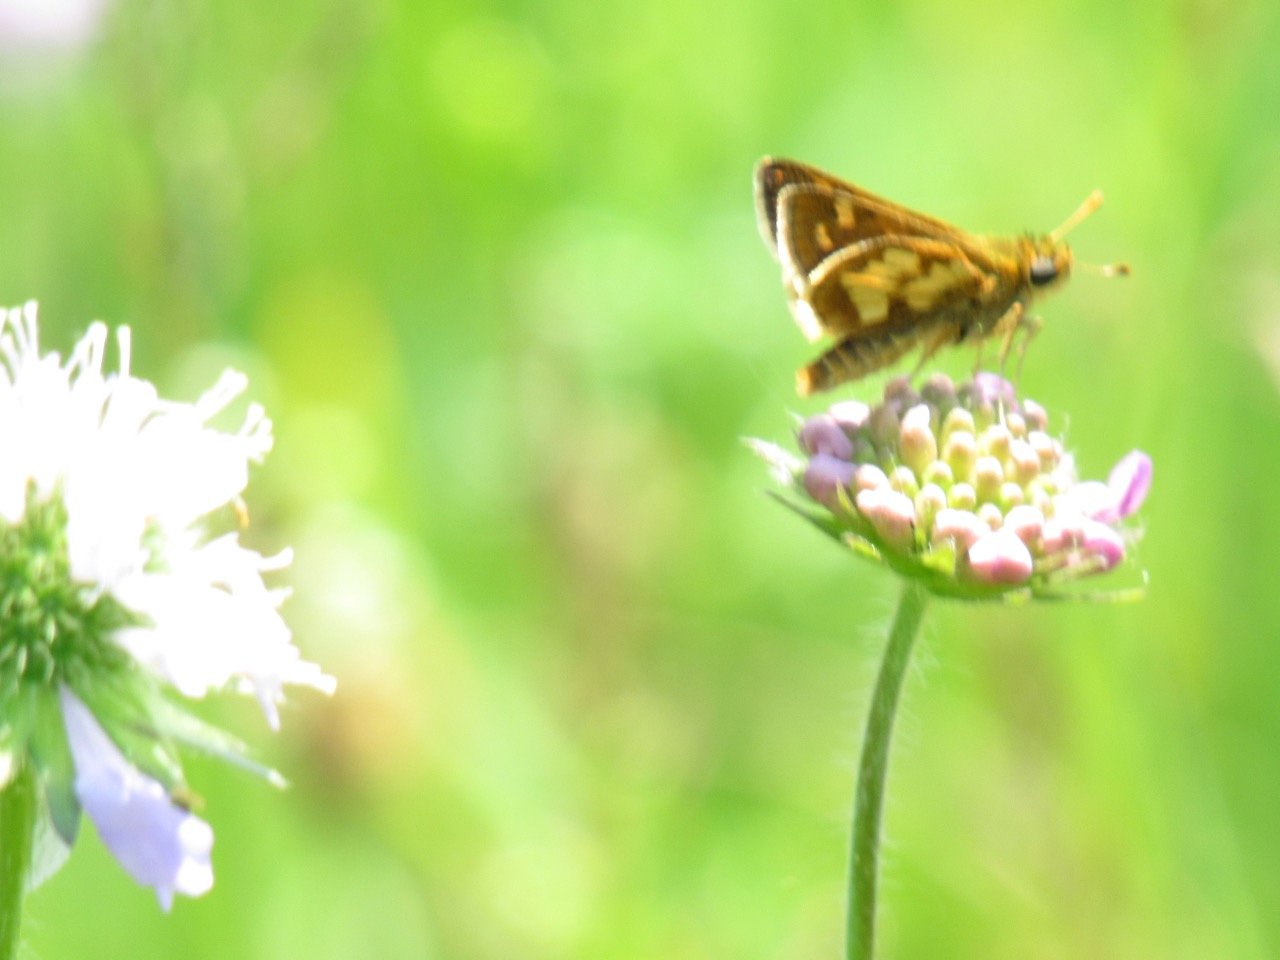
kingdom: Animalia
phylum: Arthropoda
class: Insecta
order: Lepidoptera
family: Hesperiidae
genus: Polites
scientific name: Polites coras
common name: Peck's Skipper
